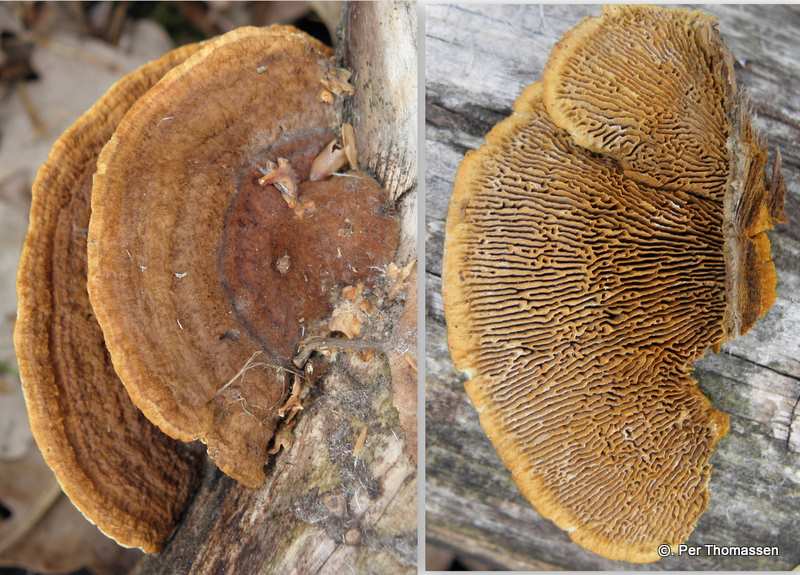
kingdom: Fungi
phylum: Basidiomycota
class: Agaricomycetes
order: Gloeophyllales
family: Gloeophyllaceae
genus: Gloeophyllum
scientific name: Gloeophyllum sepiarium
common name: fyrre-korkhat
